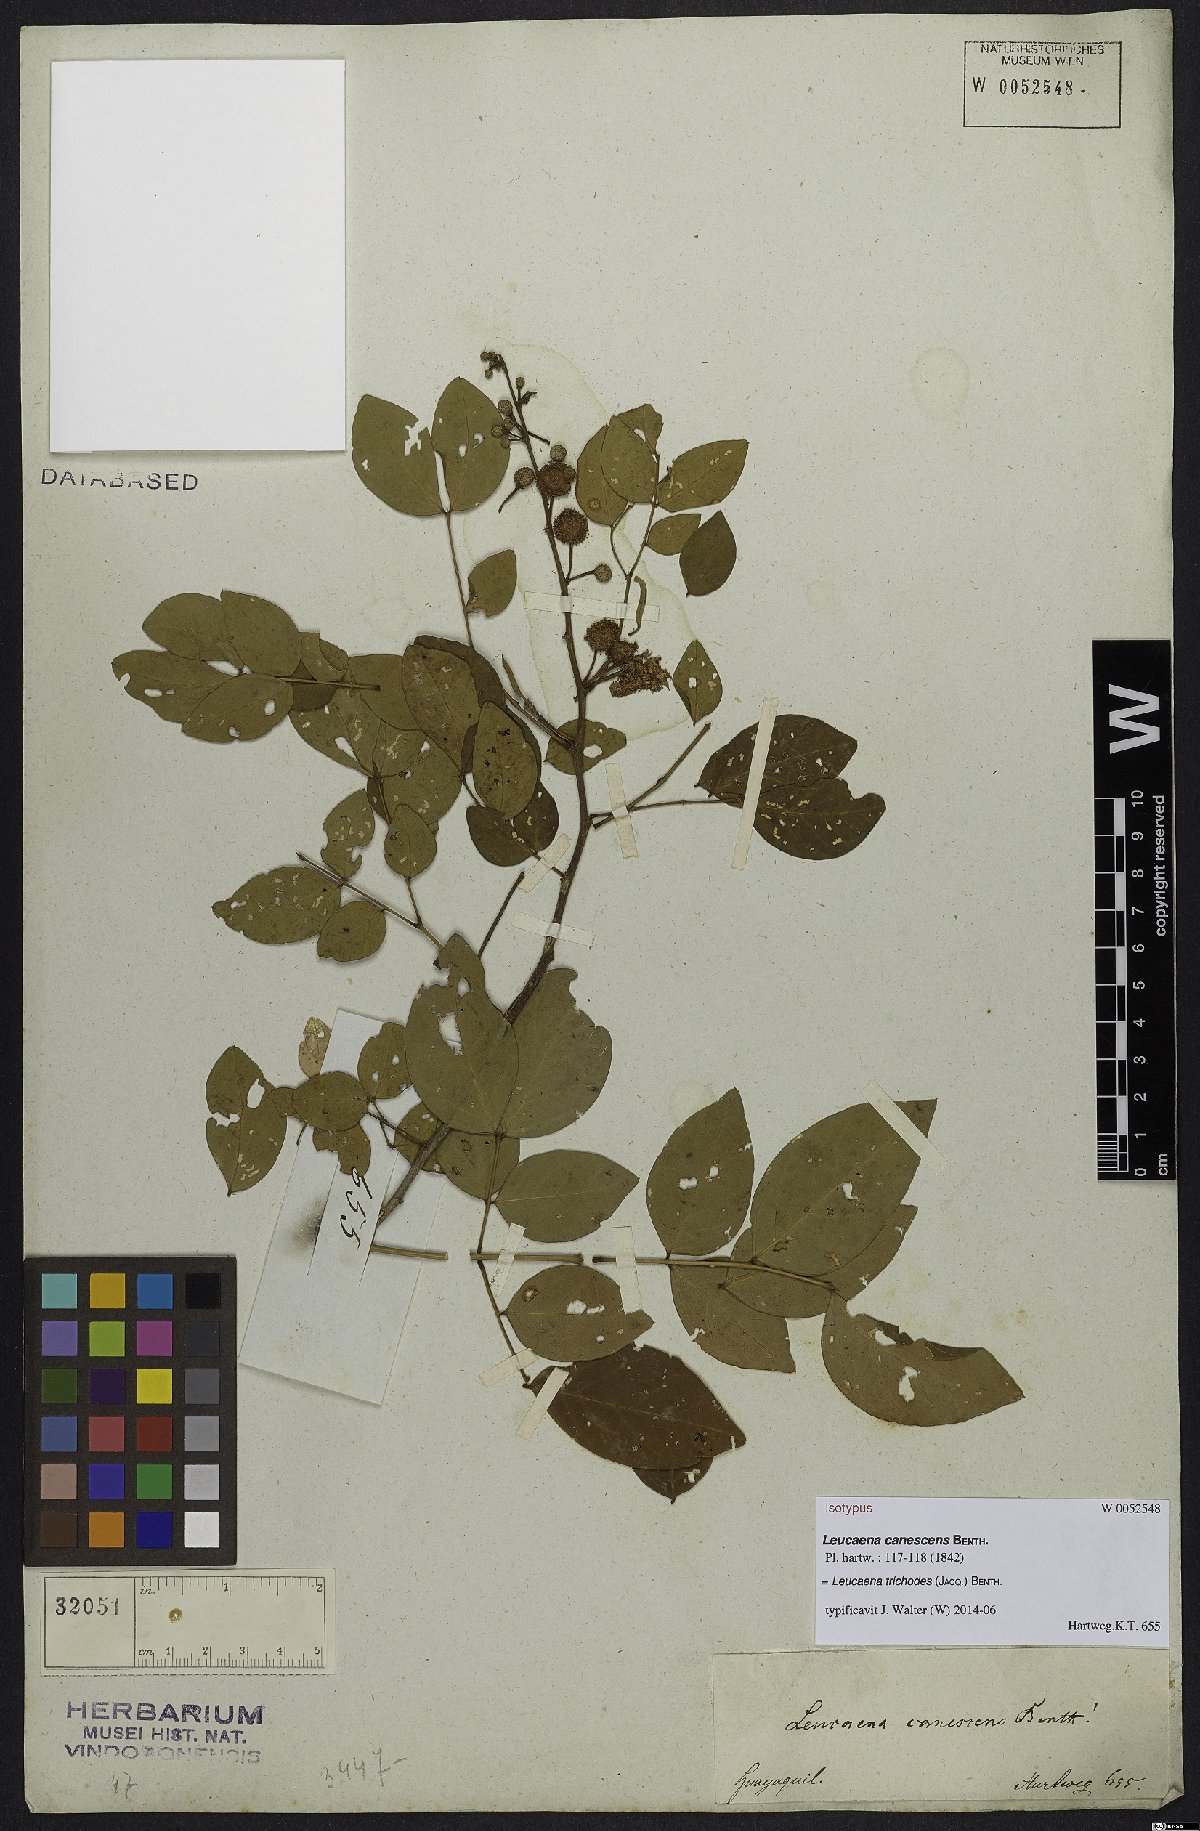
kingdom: Plantae
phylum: Tracheophyta
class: Magnoliopsida
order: Fabales
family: Fabaceae
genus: Leucaena
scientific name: Leucaena trichodes
